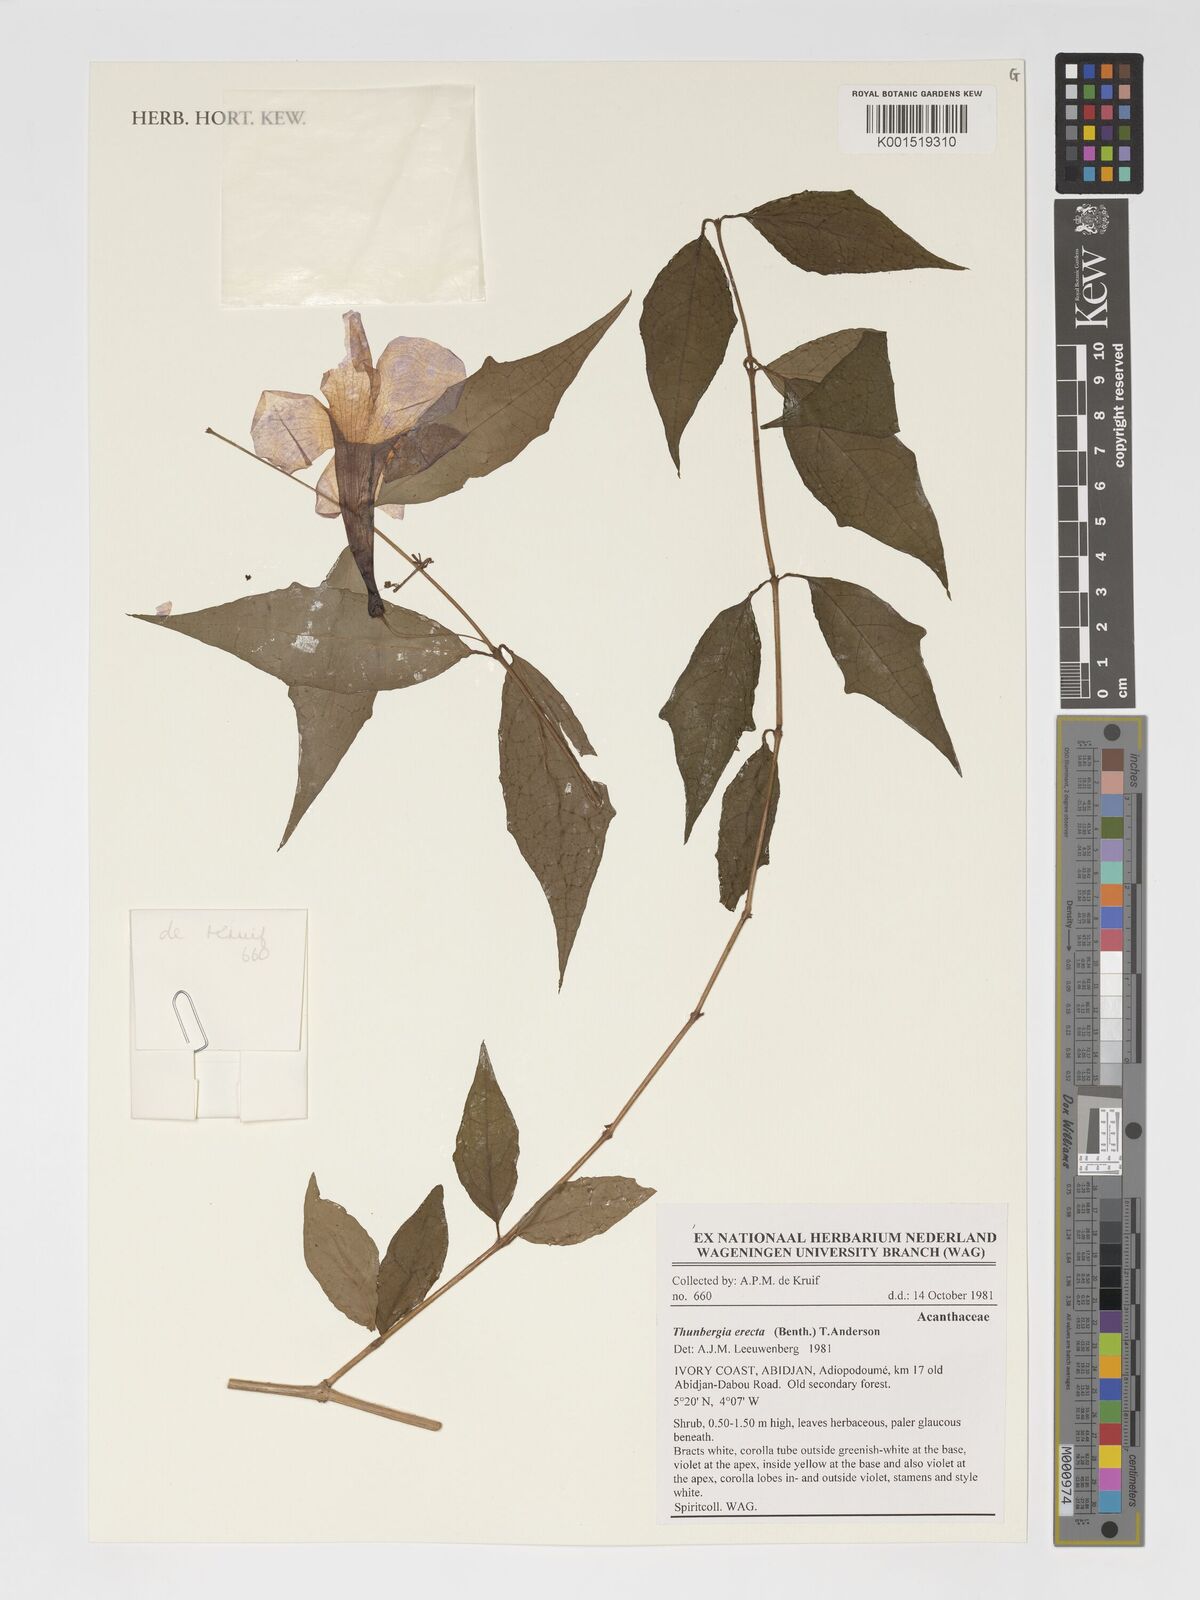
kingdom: Plantae
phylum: Tracheophyta
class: Magnoliopsida
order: Lamiales
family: Acanthaceae
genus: Thunbergia
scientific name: Thunbergia erecta
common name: Bush clockvine
